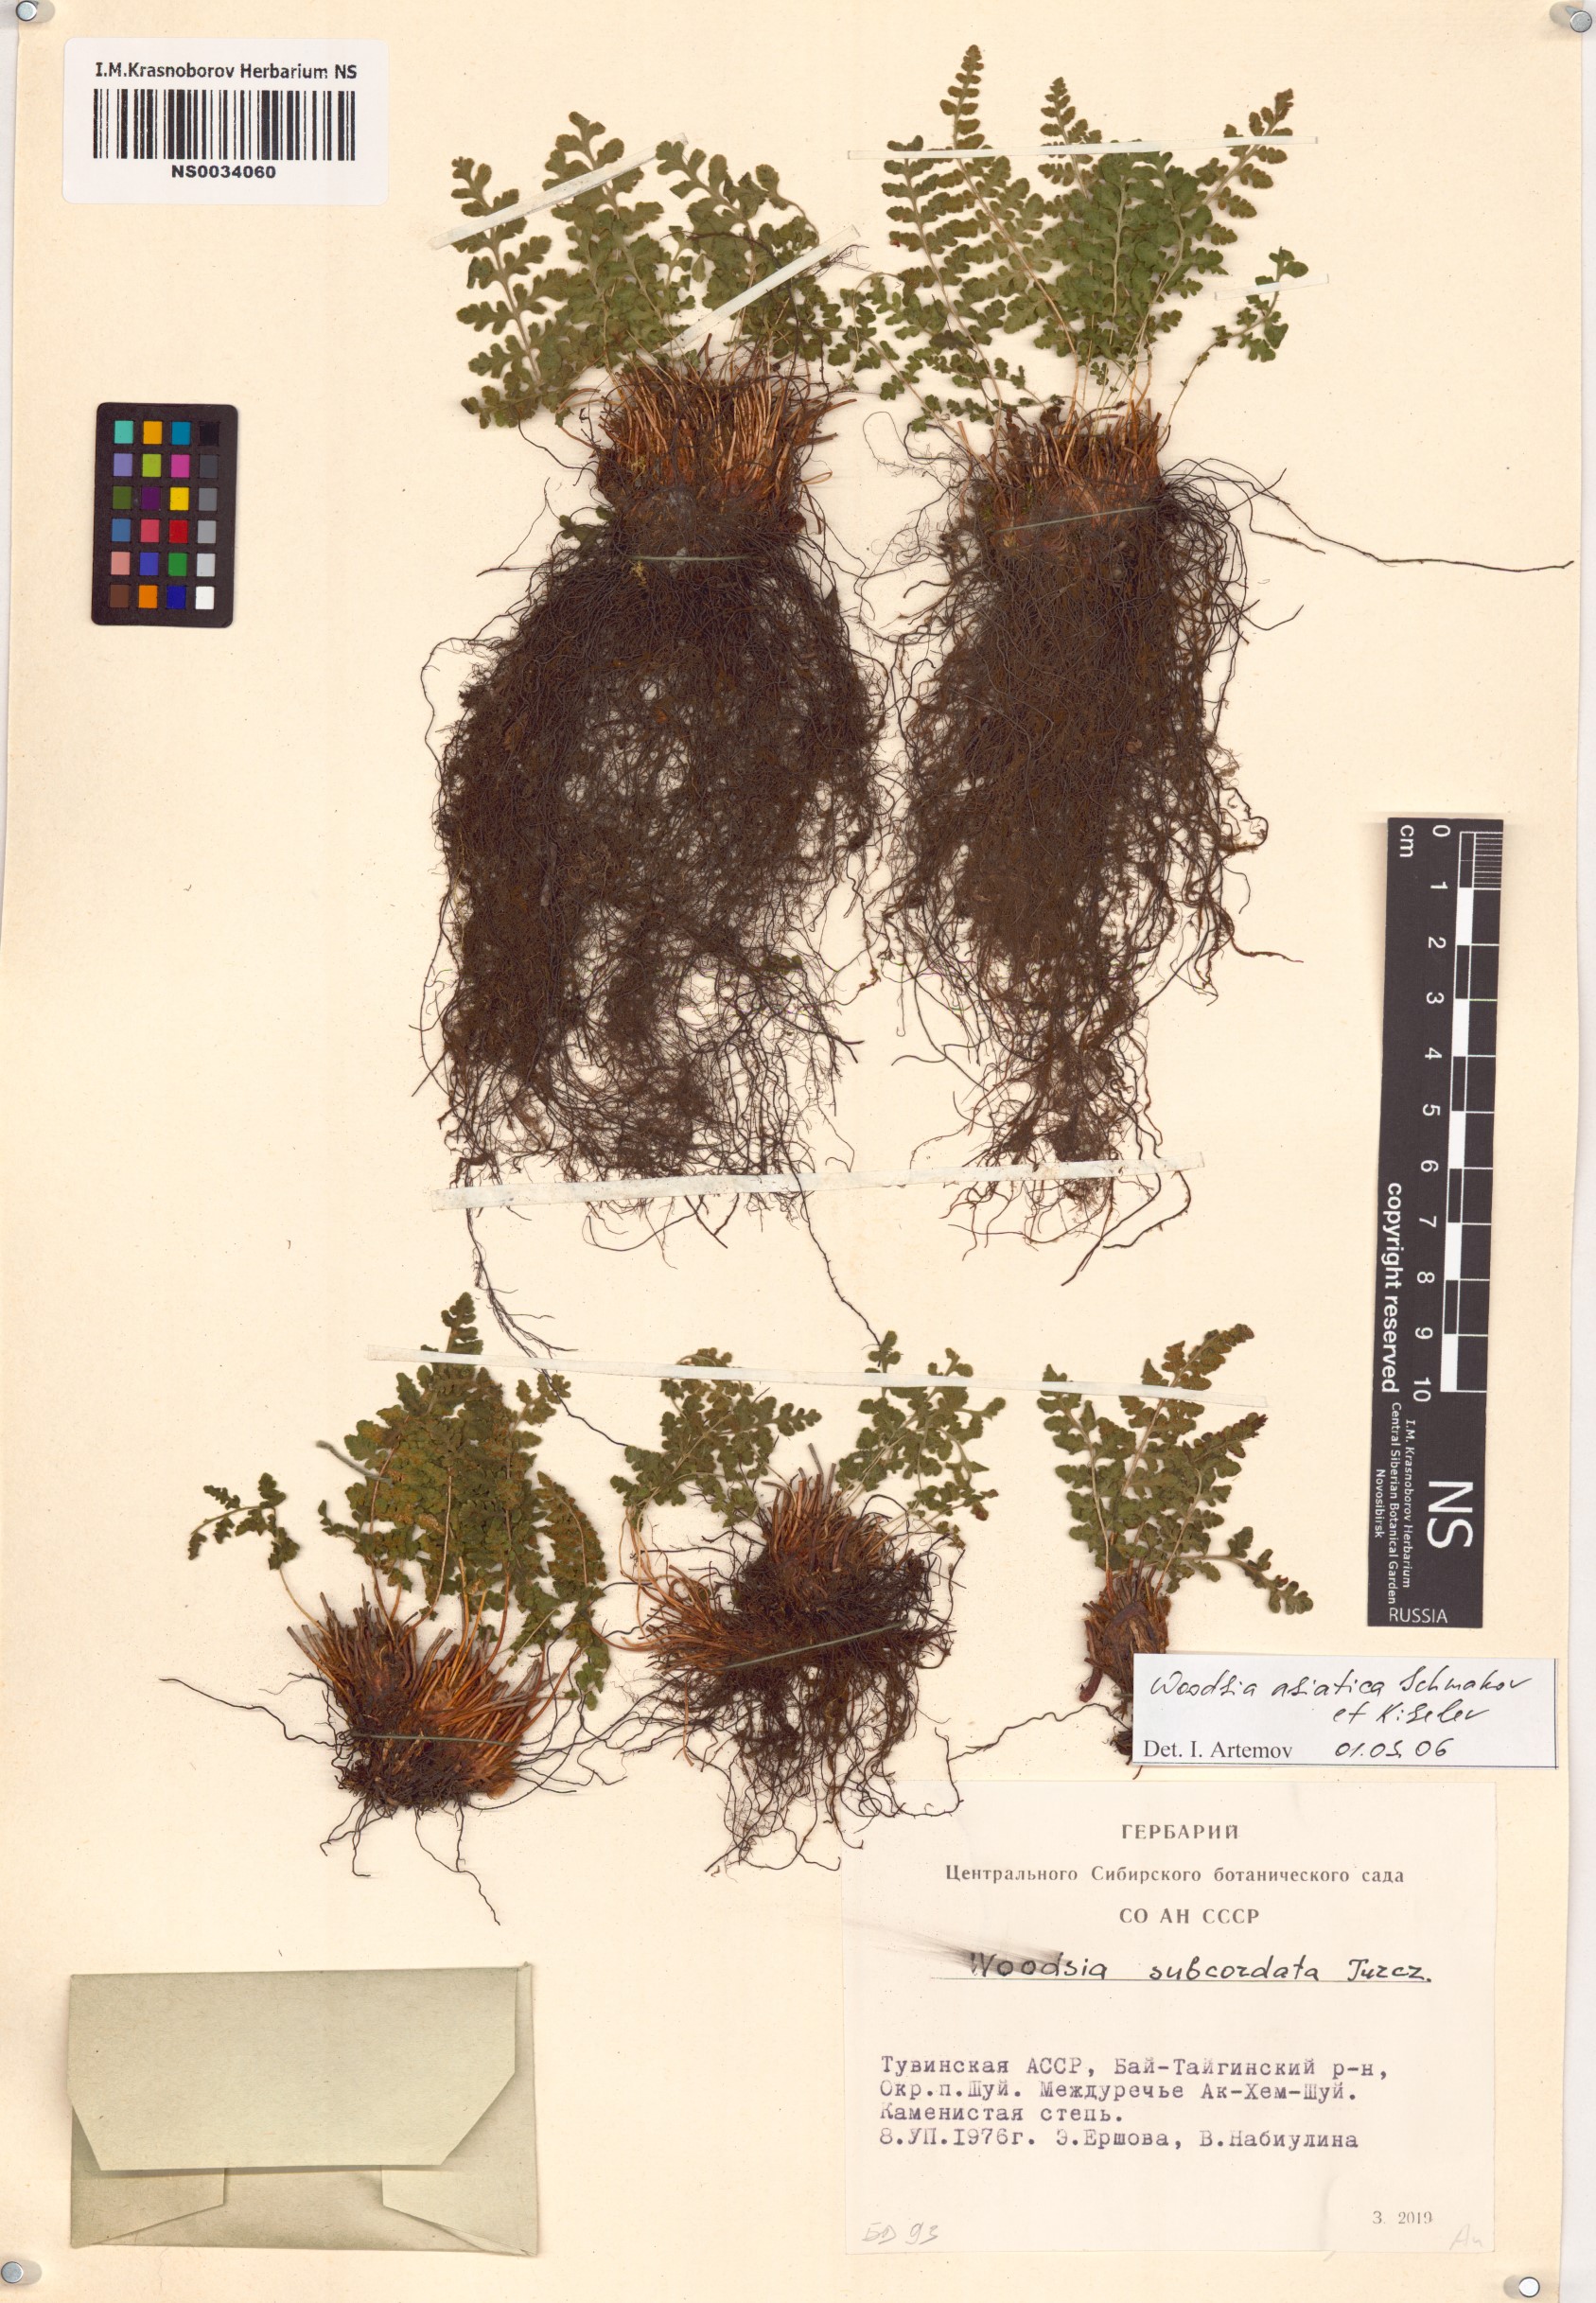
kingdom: Plantae
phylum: Tracheophyta
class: Polypodiopsida
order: Polypodiales
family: Woodsiaceae
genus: Woodsia
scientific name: Woodsia asiatica
